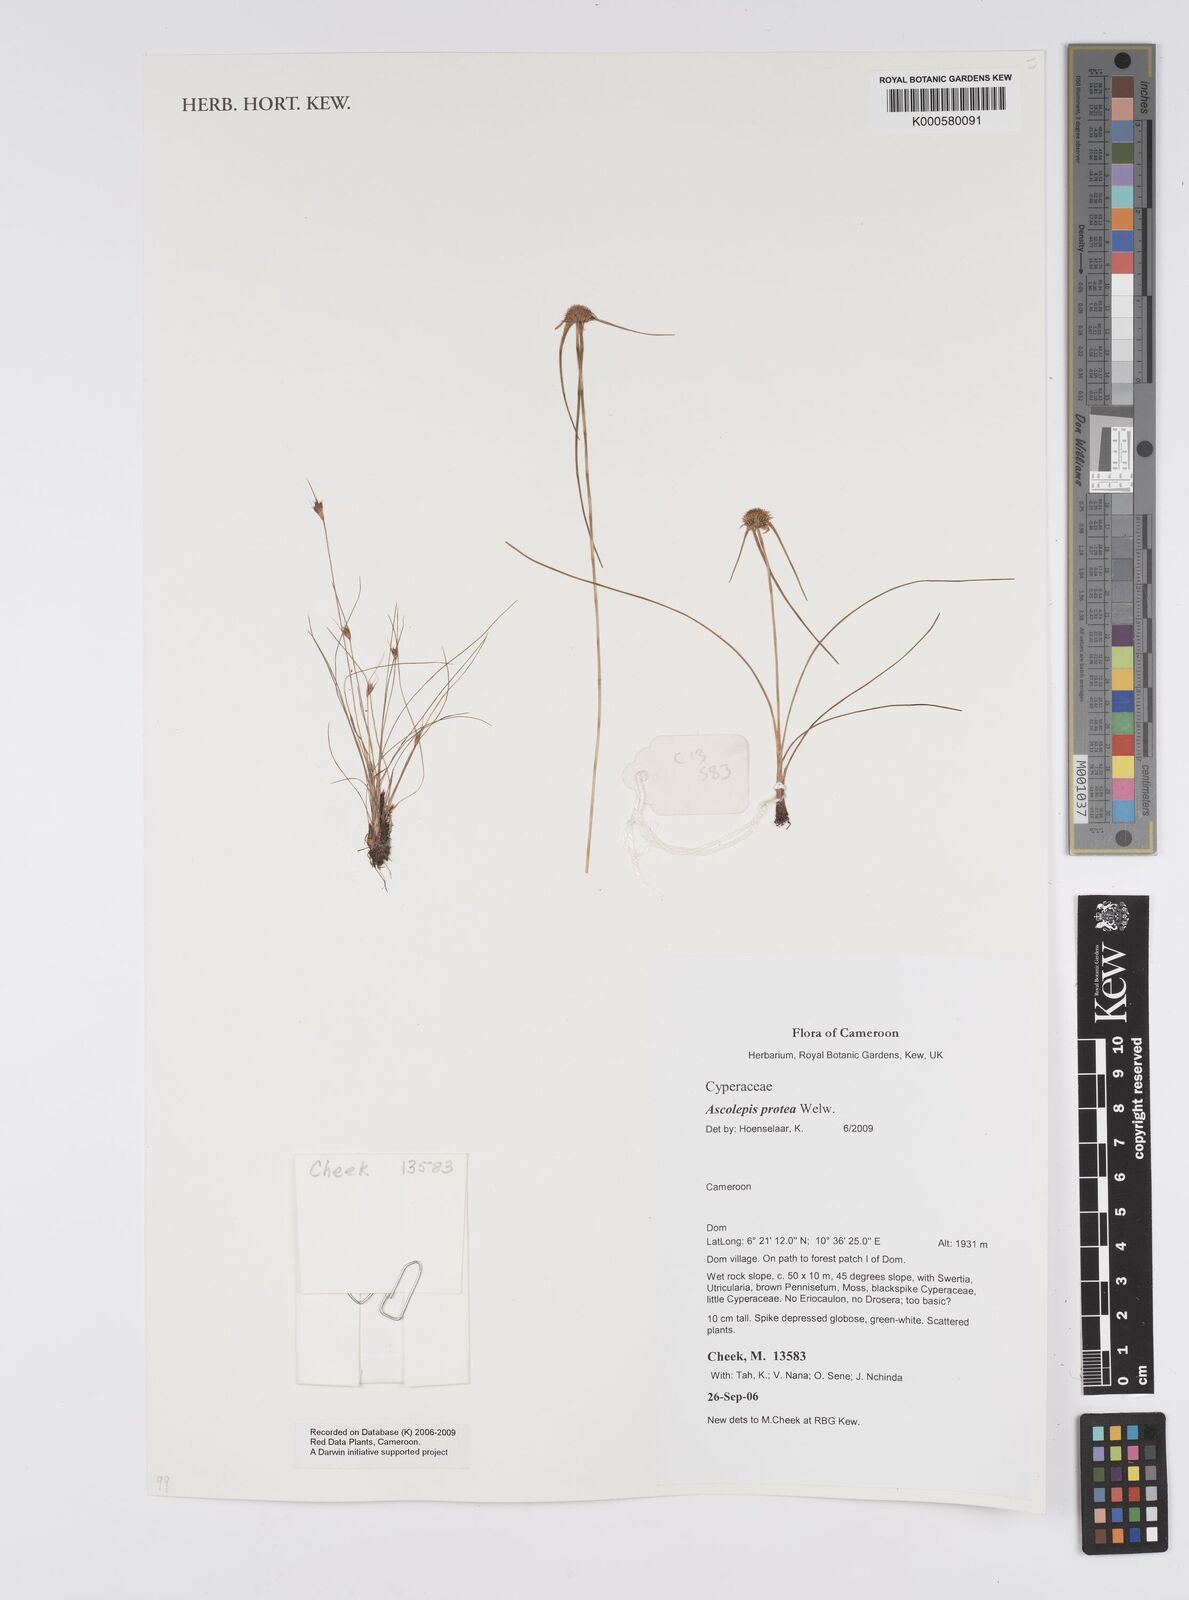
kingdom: Plantae
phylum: Tracheophyta
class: Liliopsida
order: Poales
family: Cyperaceae
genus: Cyperus
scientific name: Cyperus proteus
